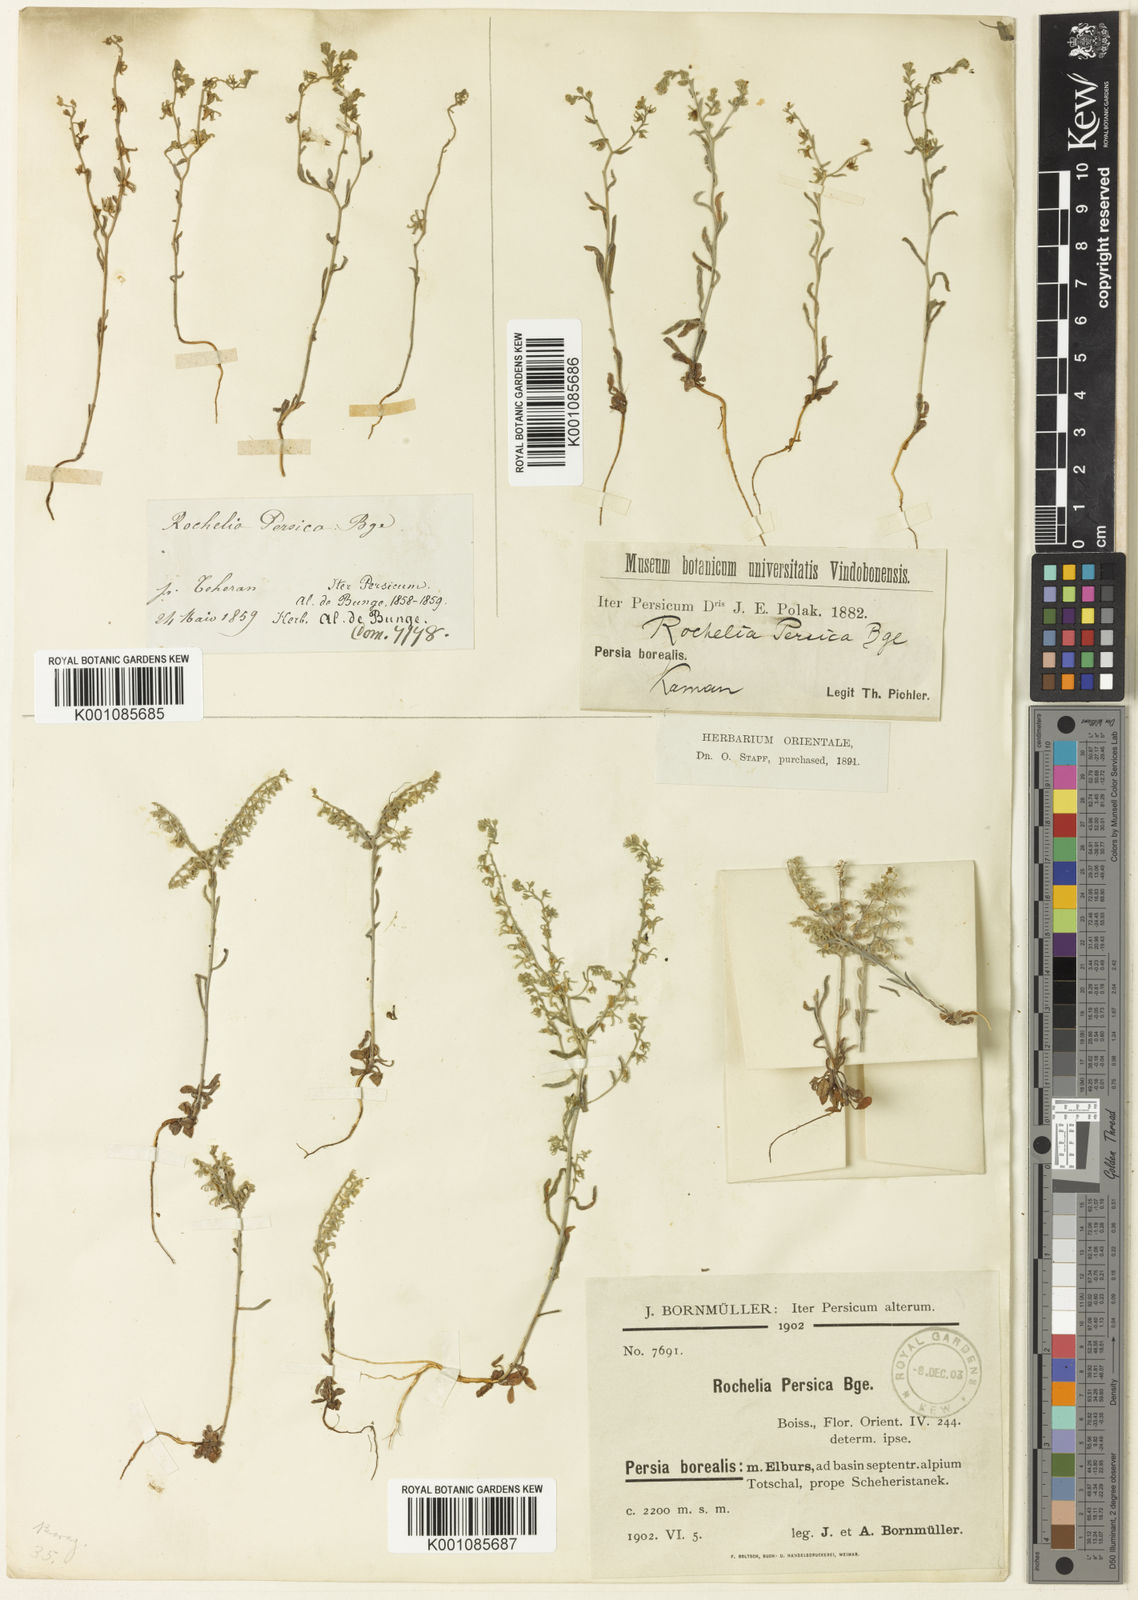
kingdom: Plantae
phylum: Tracheophyta
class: Magnoliopsida
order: Boraginales
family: Boraginaceae
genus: Anchusa
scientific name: Anchusa
